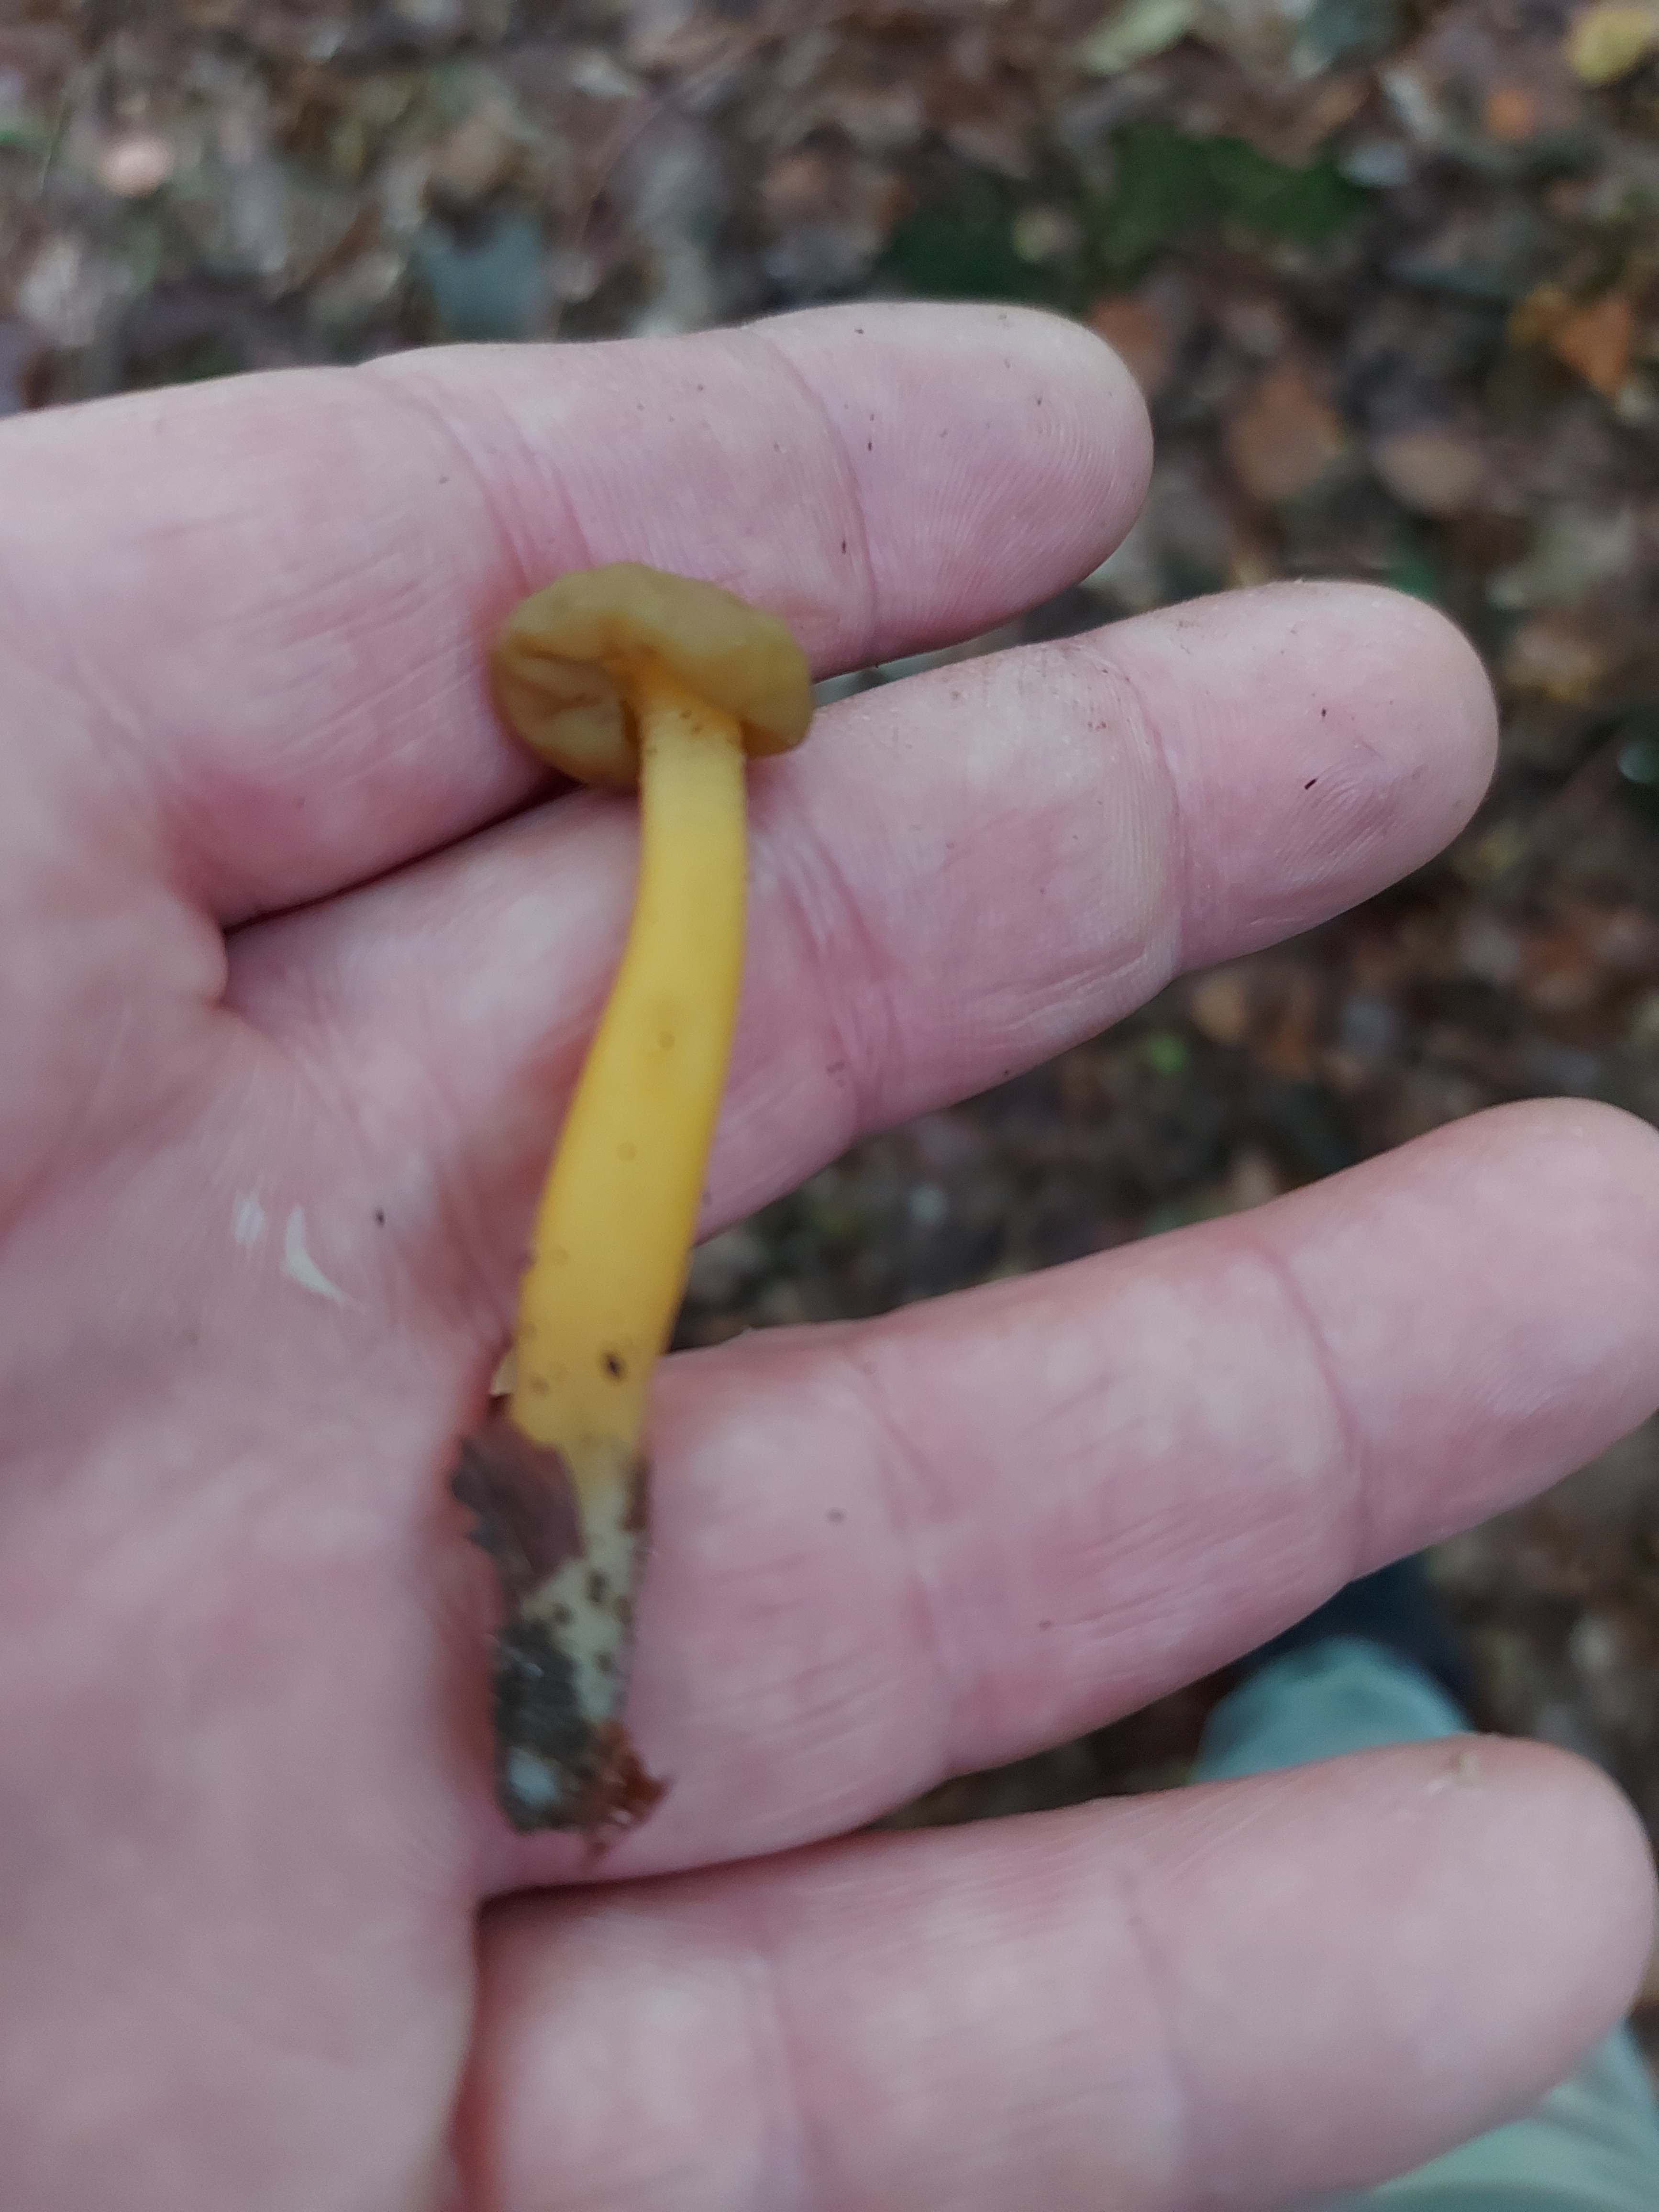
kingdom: Fungi
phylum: Ascomycota
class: Leotiomycetes
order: Leotiales
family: Leotiaceae
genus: Leotia
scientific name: Leotia lubrica
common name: ravsvamp
